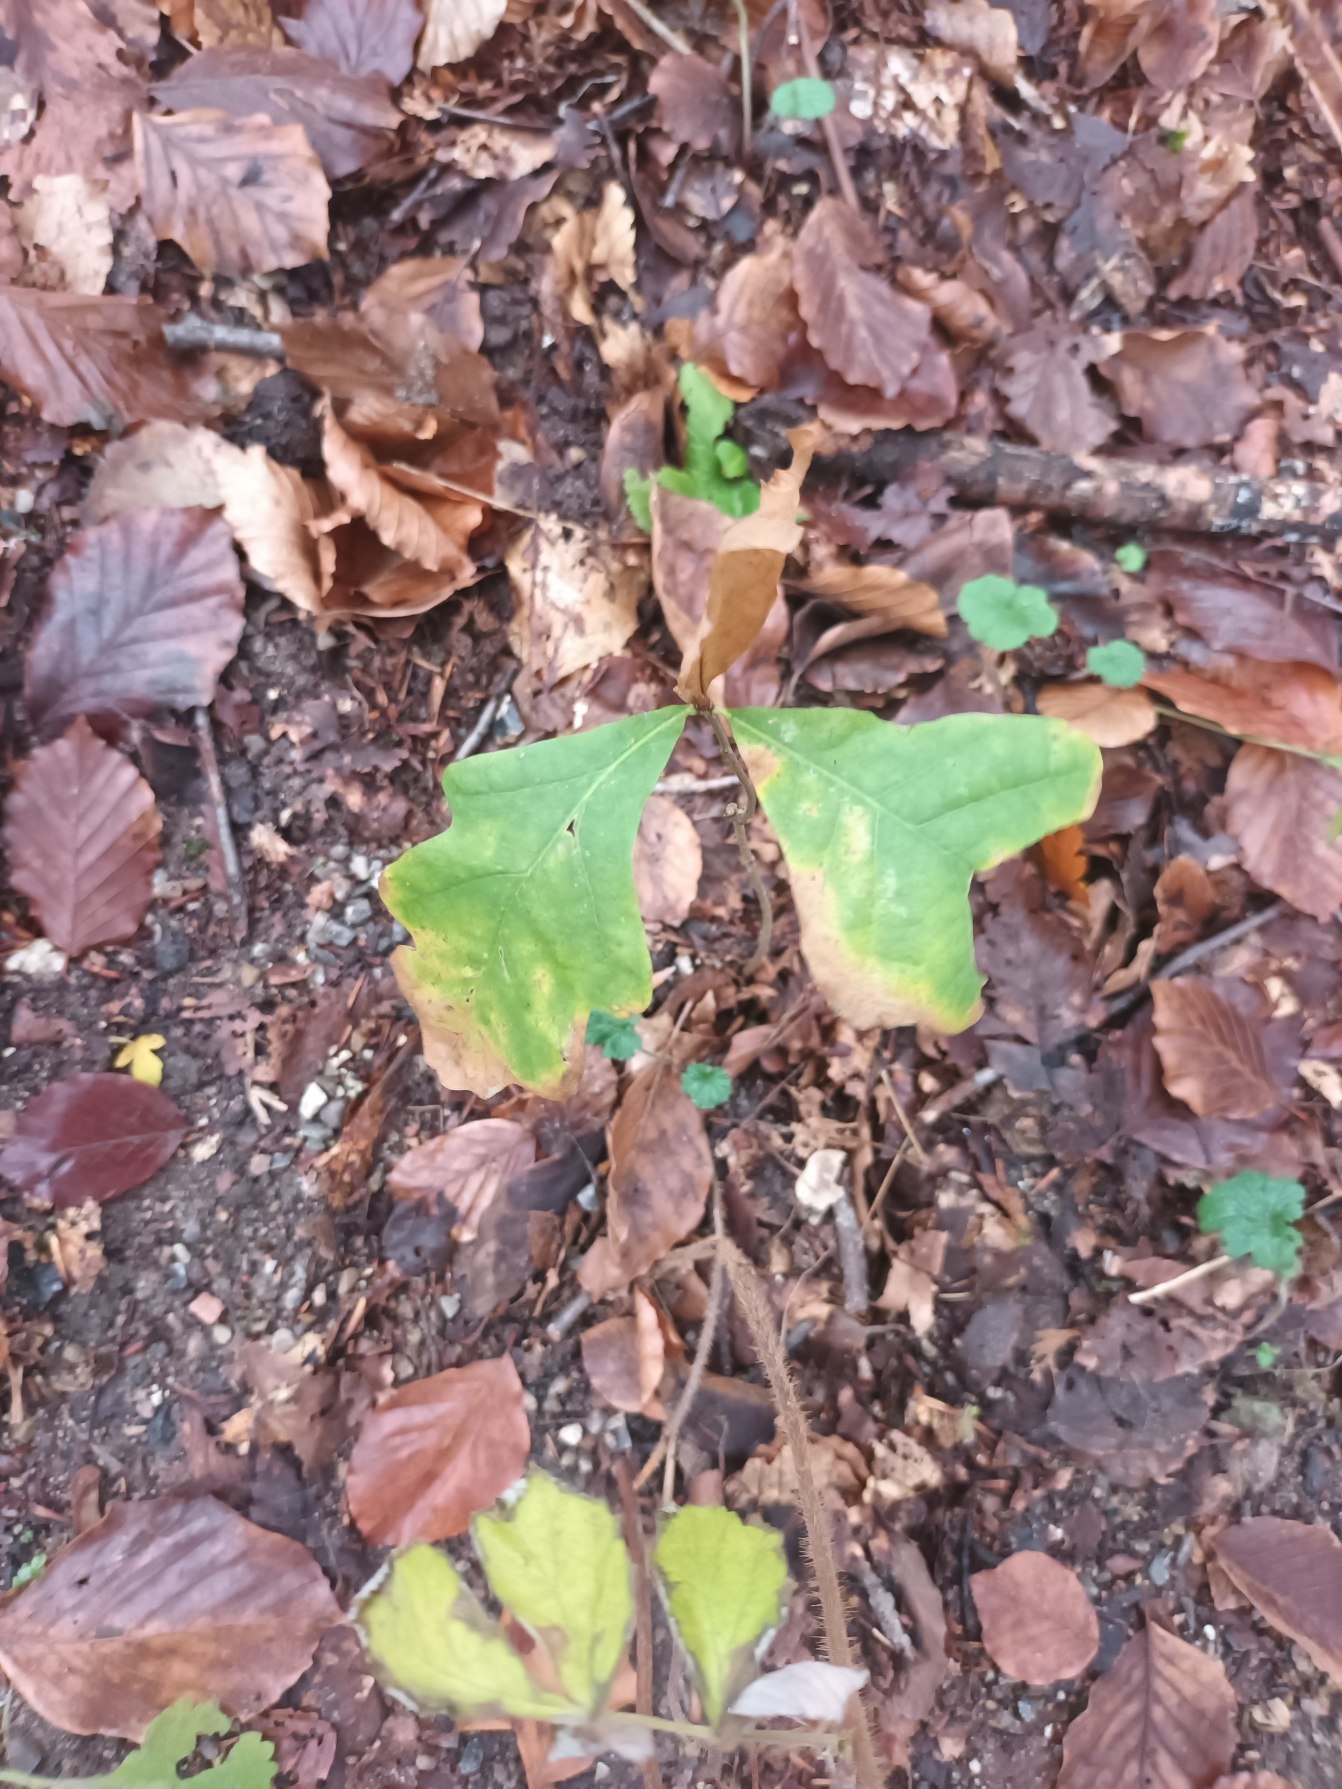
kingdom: Plantae
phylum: Tracheophyta
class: Magnoliopsida
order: Fagales
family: Fagaceae
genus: Quercus
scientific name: Quercus robur
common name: Stilk-eg/almindelig eg
